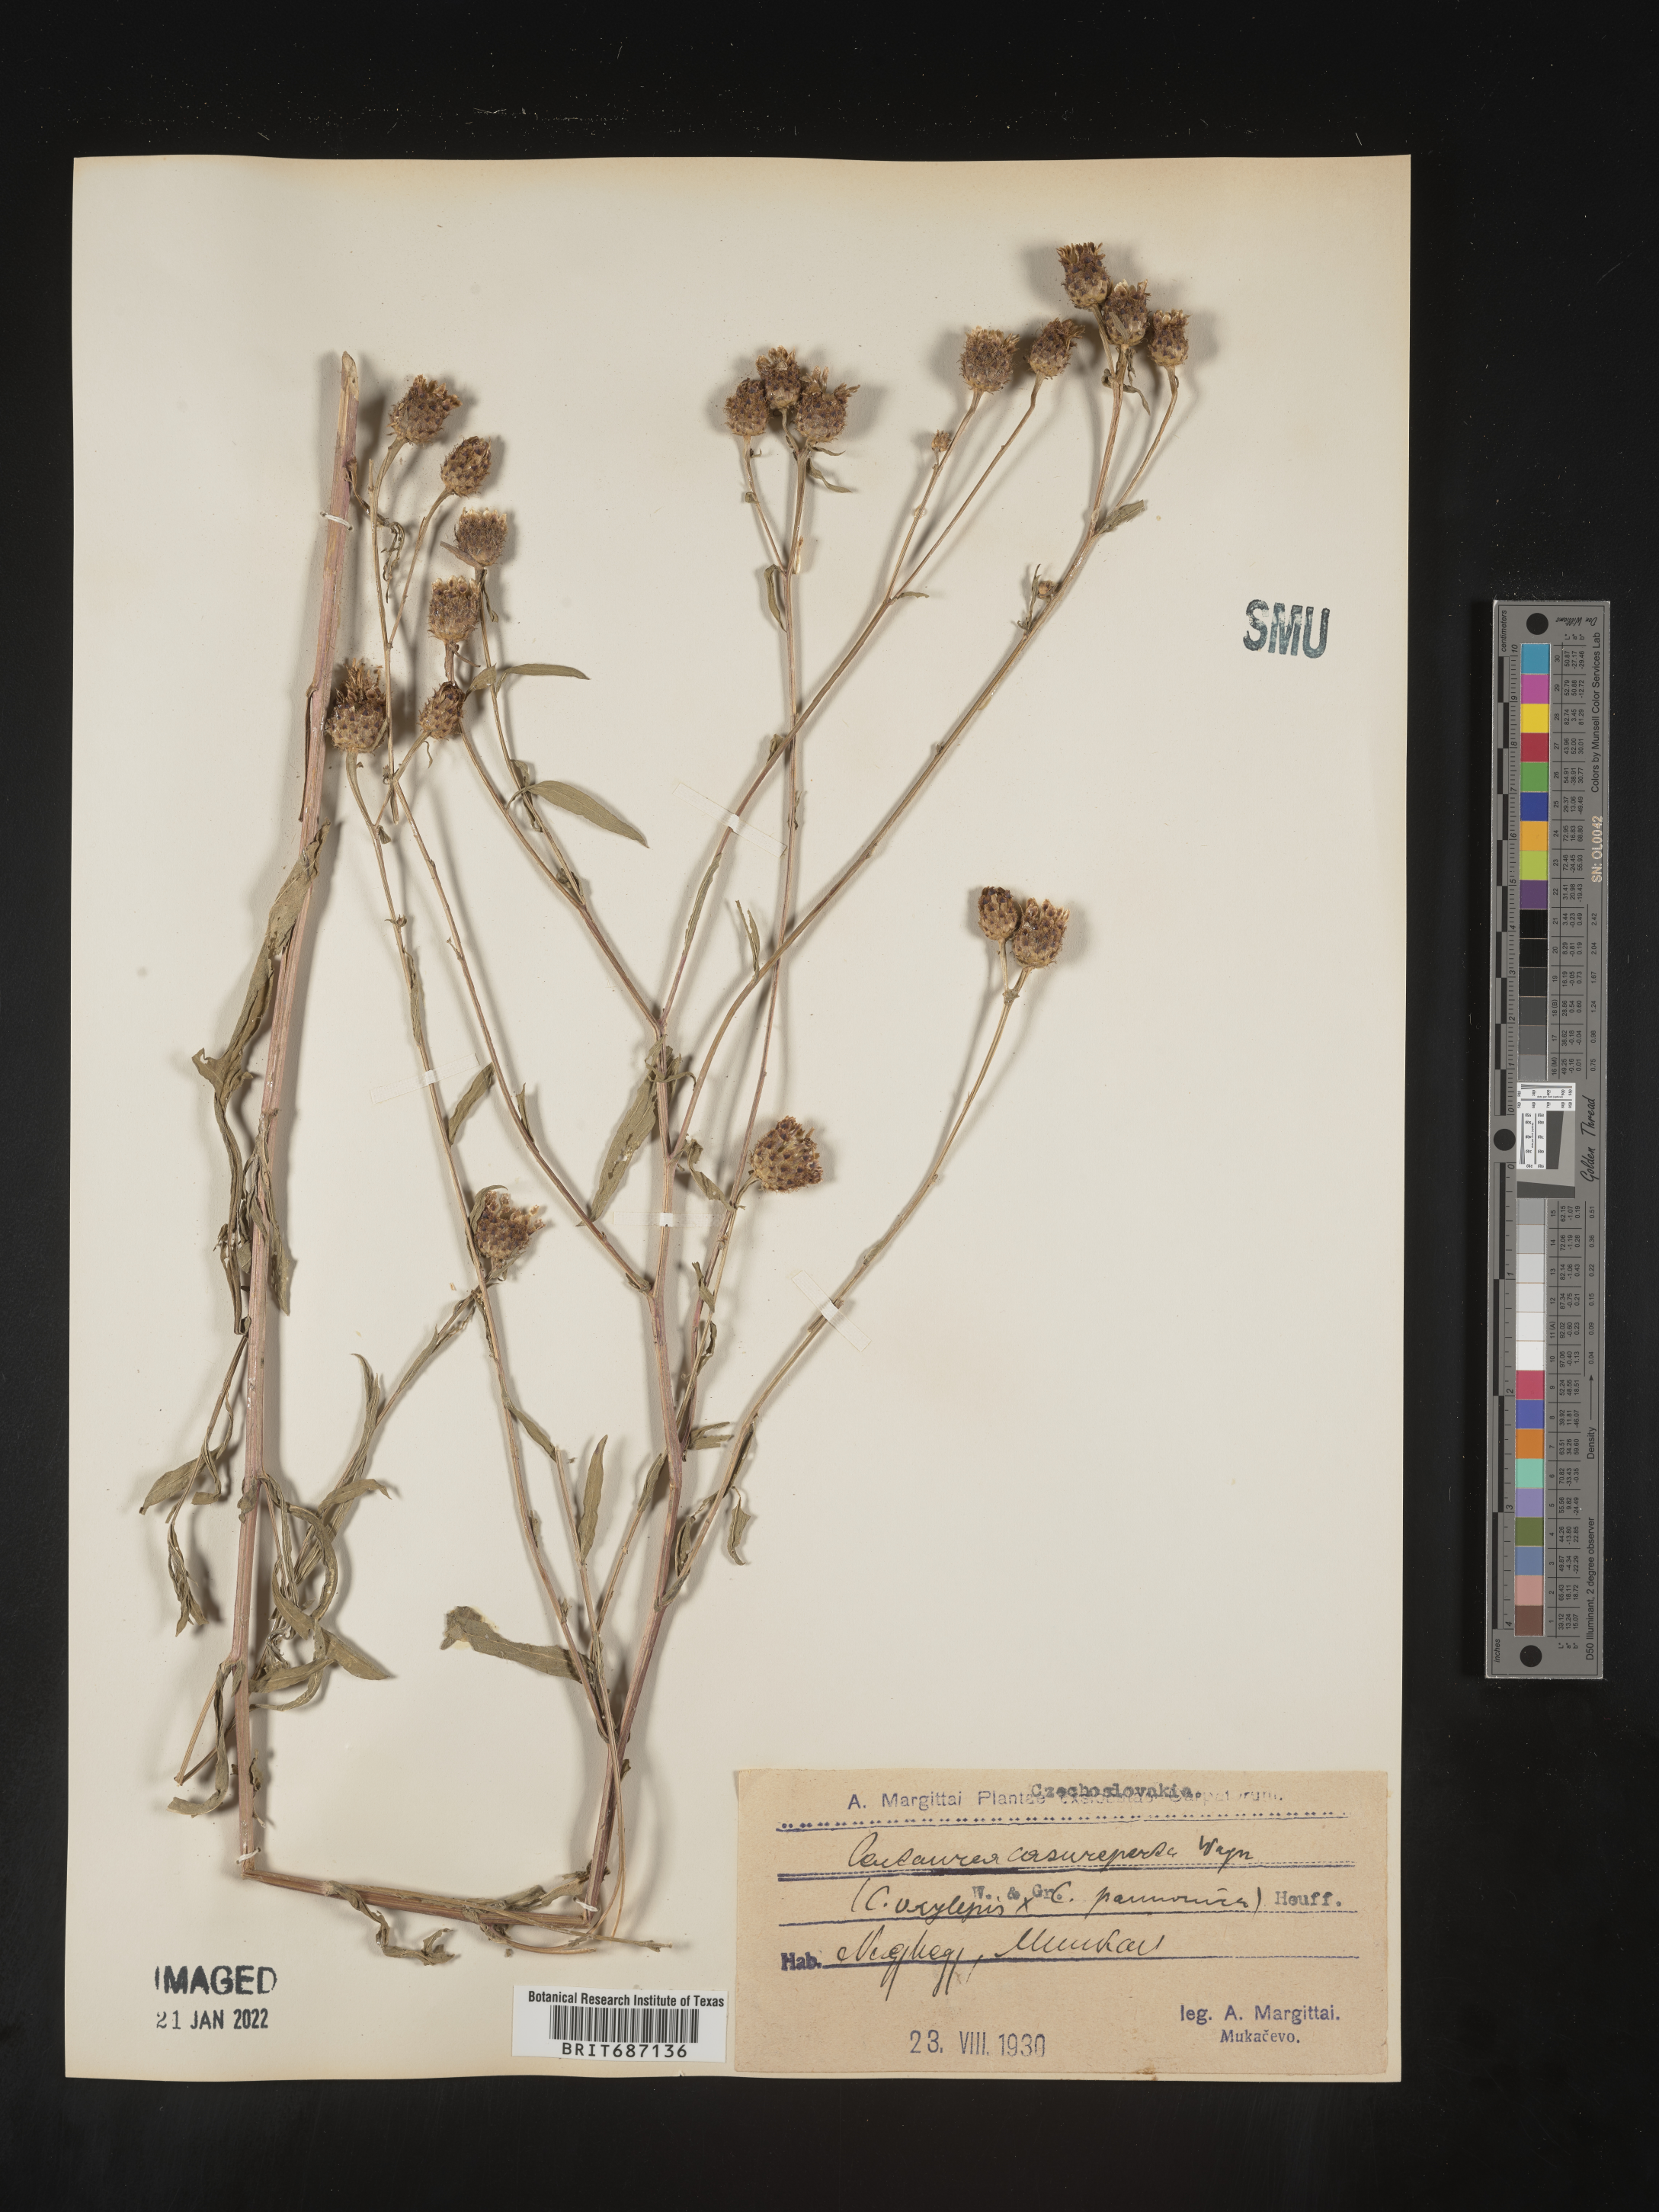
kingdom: Plantae
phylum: Tracheophyta
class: Magnoliopsida
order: Asterales
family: Asteraceae
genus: Centaurea
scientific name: Centaurea
